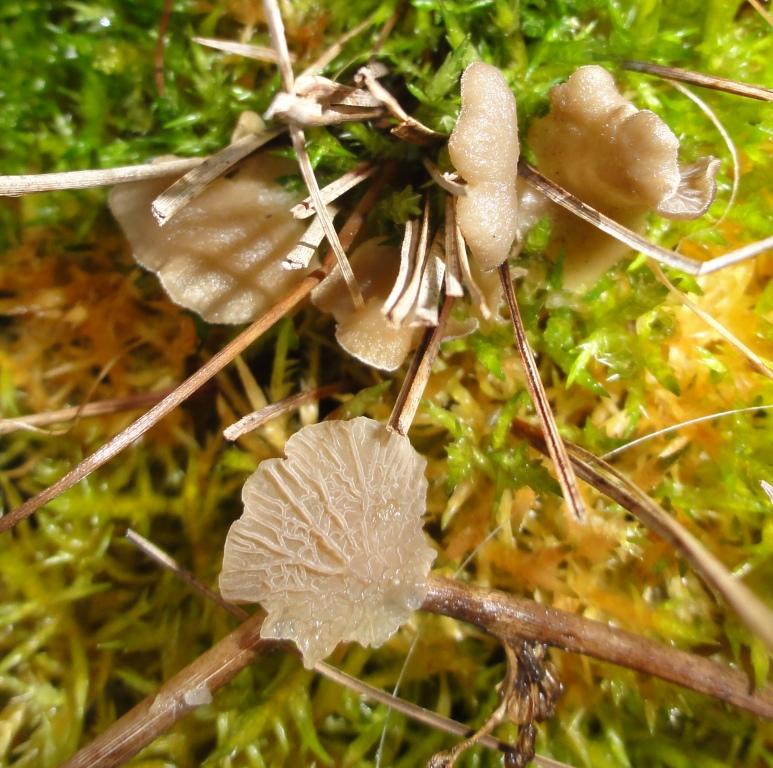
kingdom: Fungi
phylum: Basidiomycota
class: Agaricomycetes
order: Agaricales
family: Hygrophoraceae
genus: Arrhenia
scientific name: Arrhenia lobata
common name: siddende fontænehat
